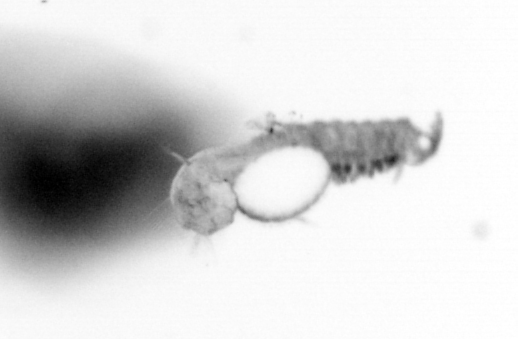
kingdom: Animalia
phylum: Annelida
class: Polychaeta
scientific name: Polychaeta
